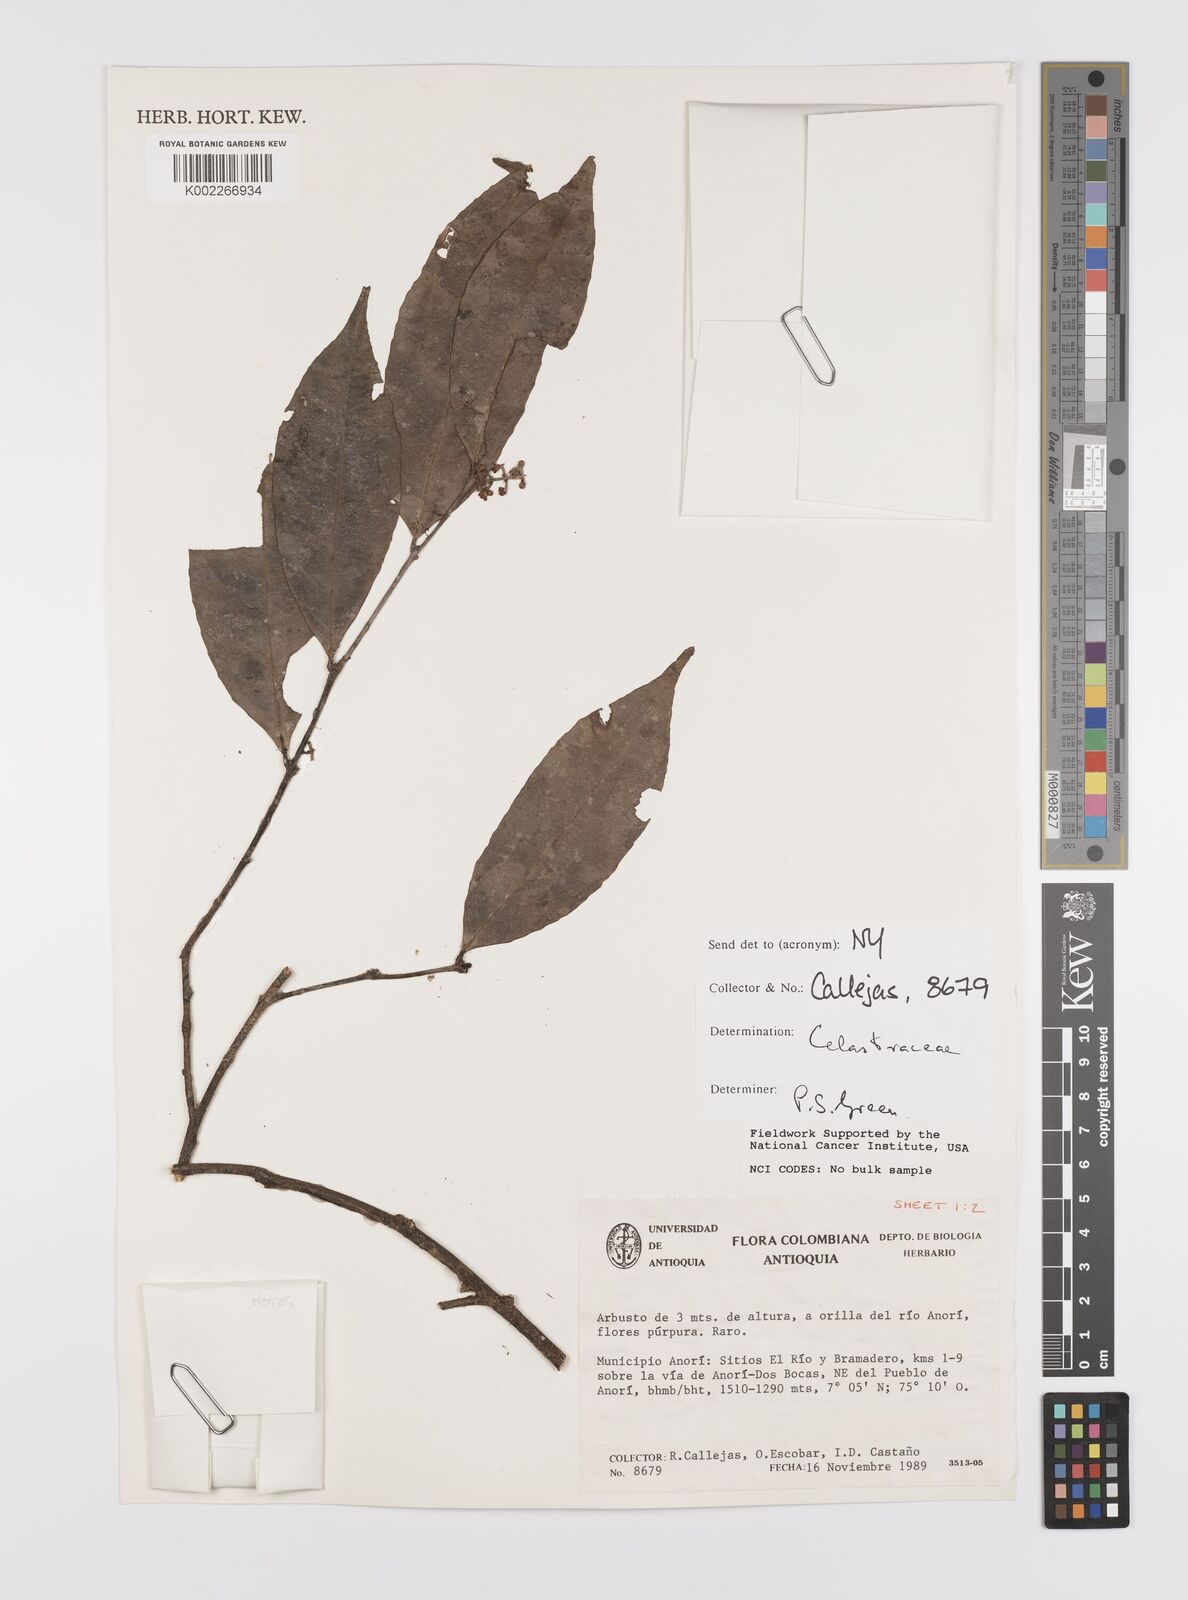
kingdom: Plantae
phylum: Tracheophyta
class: Magnoliopsida
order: Celastrales
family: Celastraceae
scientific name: Celastraceae
